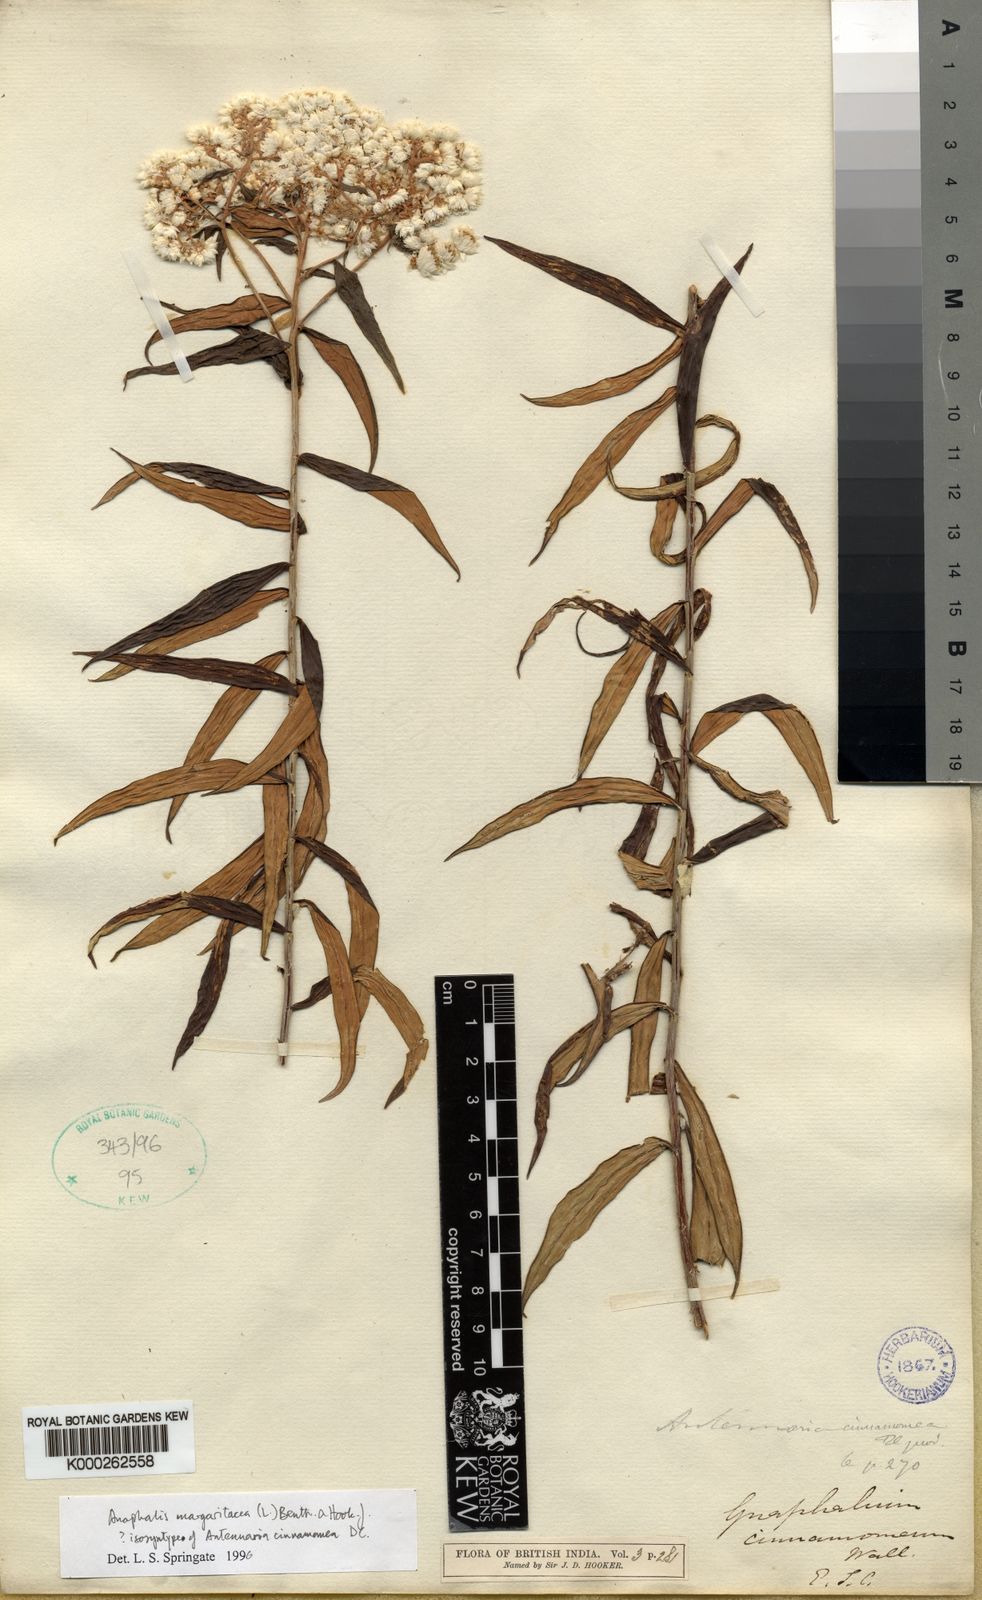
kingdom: Plantae
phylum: Tracheophyta
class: Magnoliopsida
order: Asterales
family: Asteraceae
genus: Anaphalis
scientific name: Anaphalis
